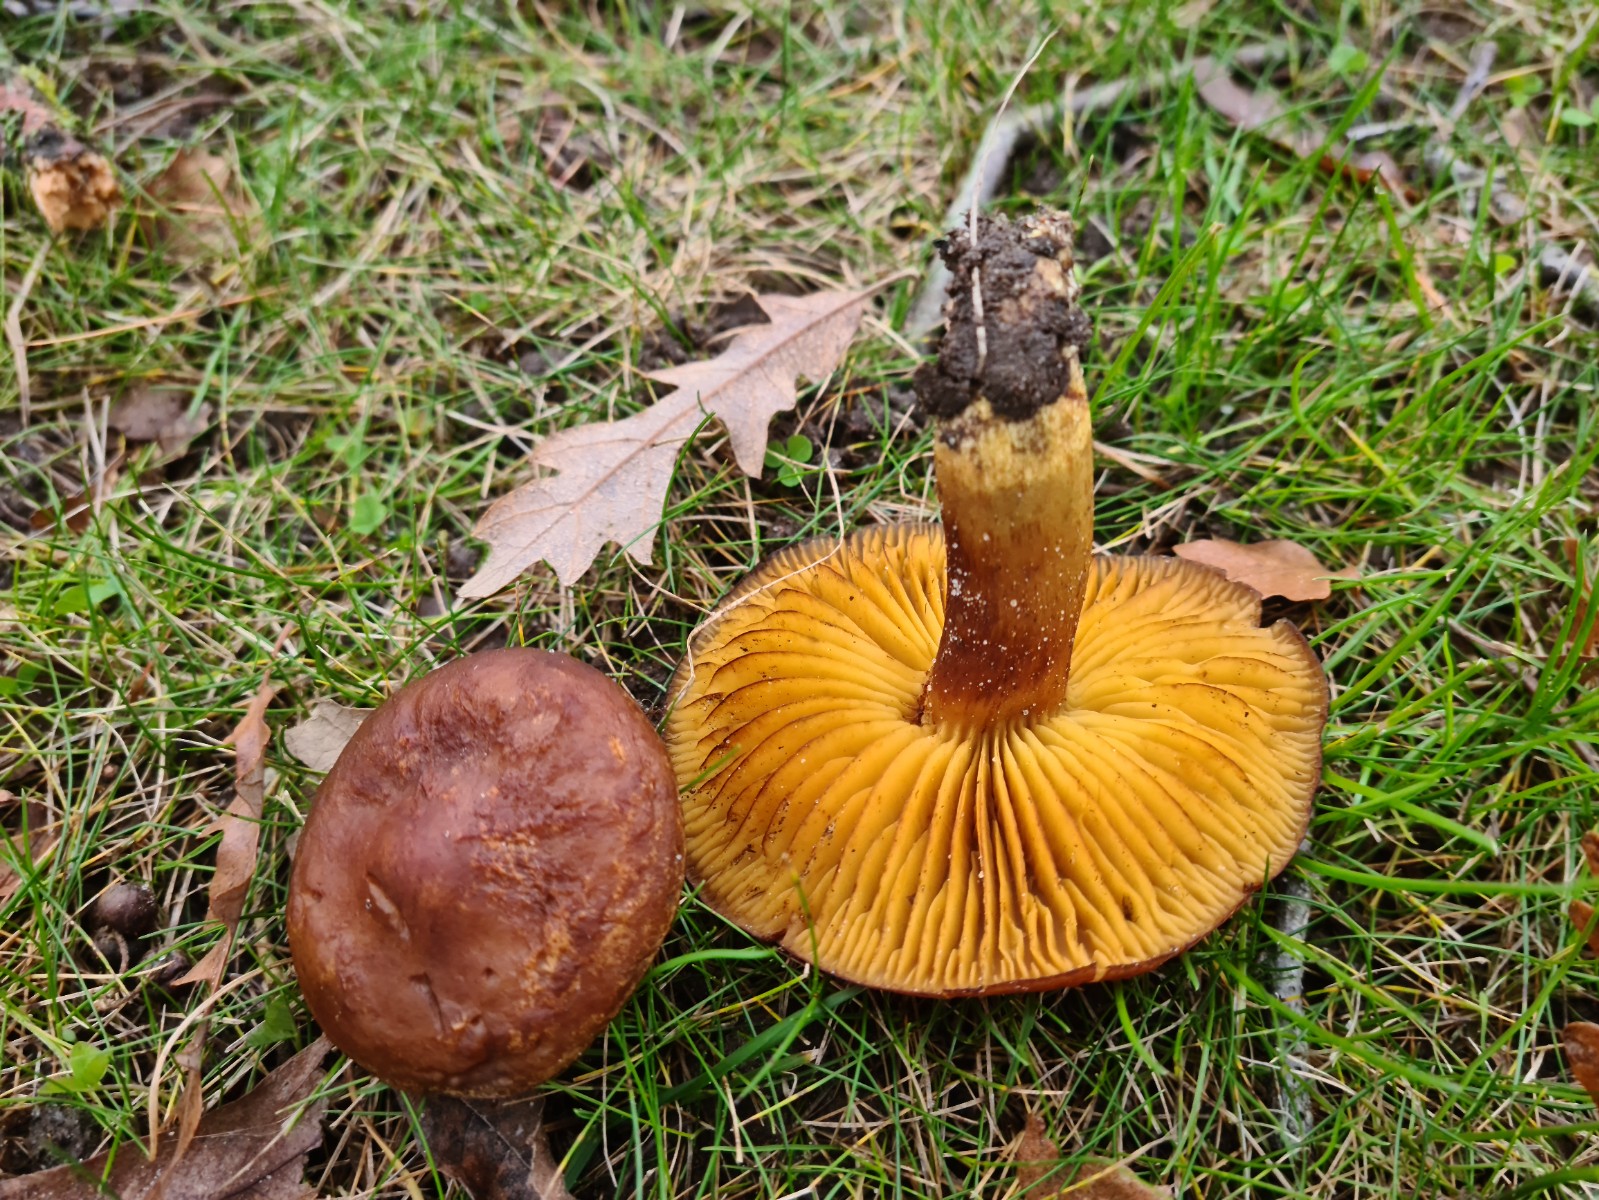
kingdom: Fungi
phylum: Basidiomycota
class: Agaricomycetes
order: Agaricales
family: Tricholomataceae
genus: Tricholoma
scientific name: Tricholoma sulphureum
